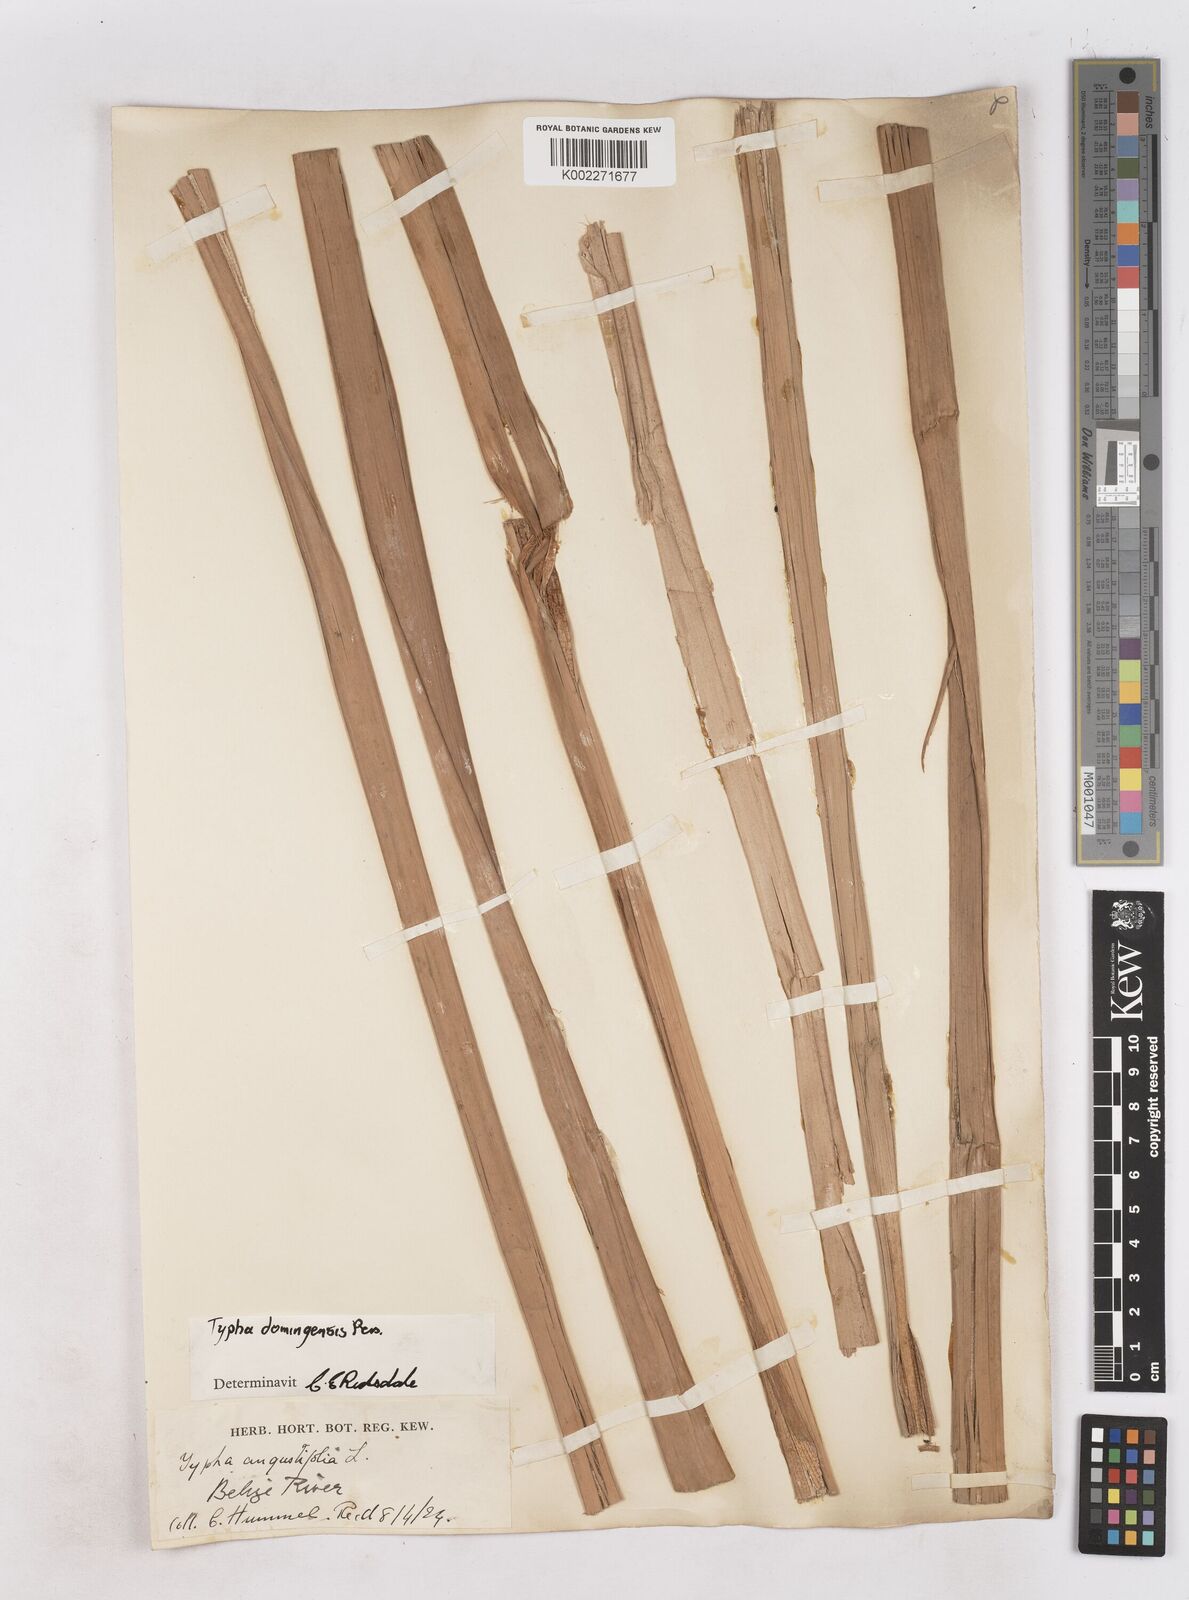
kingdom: Plantae
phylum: Tracheophyta
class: Liliopsida
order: Poales
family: Typhaceae
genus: Typha
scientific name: Typha domingensis
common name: Southern cattail
